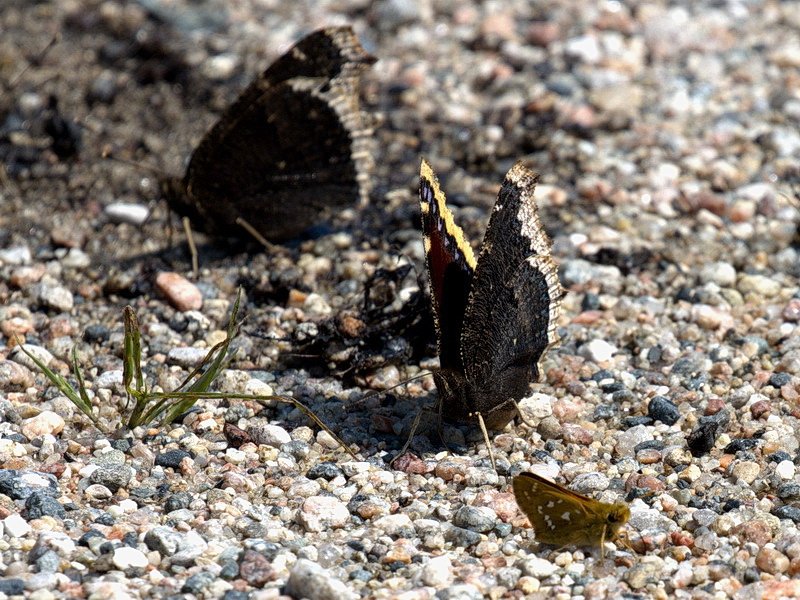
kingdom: Animalia
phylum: Arthropoda
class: Insecta
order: Lepidoptera
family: Nymphalidae
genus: Nymphalis
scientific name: Nymphalis antiopa
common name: Mourning Cloak
